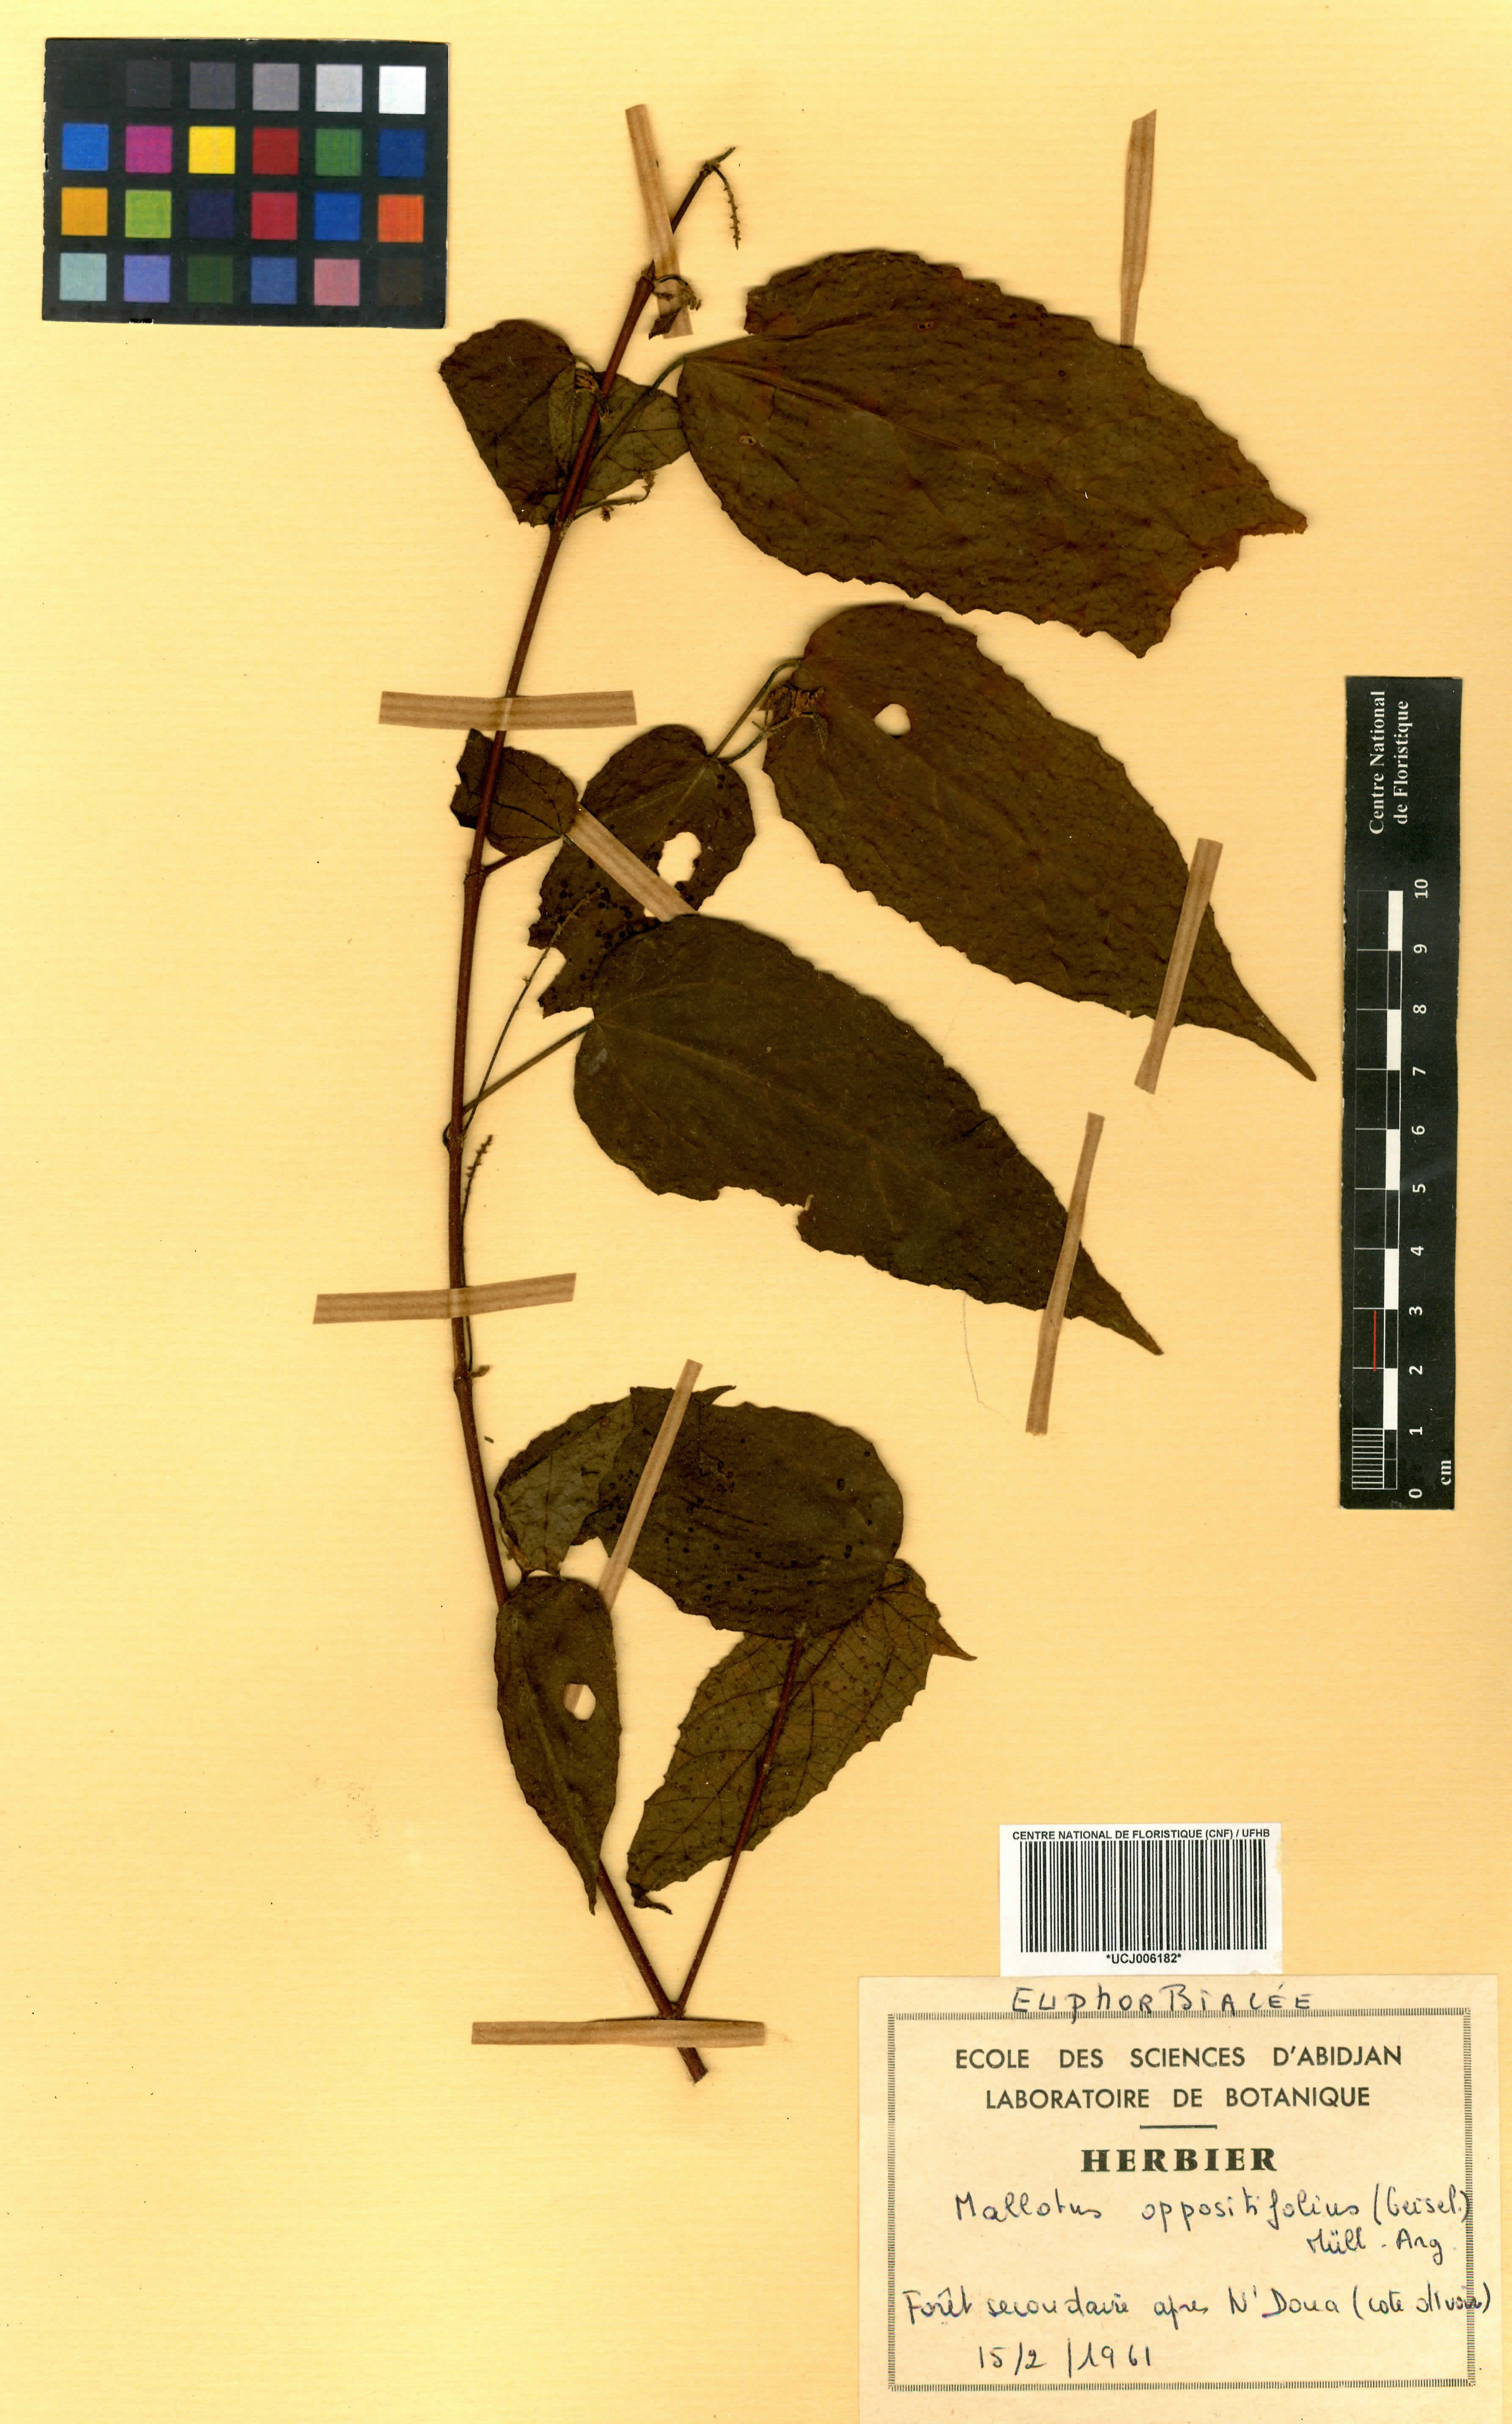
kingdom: Plantae
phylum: Tracheophyta
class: Magnoliopsida
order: Malpighiales
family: Euphorbiaceae
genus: Mallotus
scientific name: Mallotus oppositifolius
